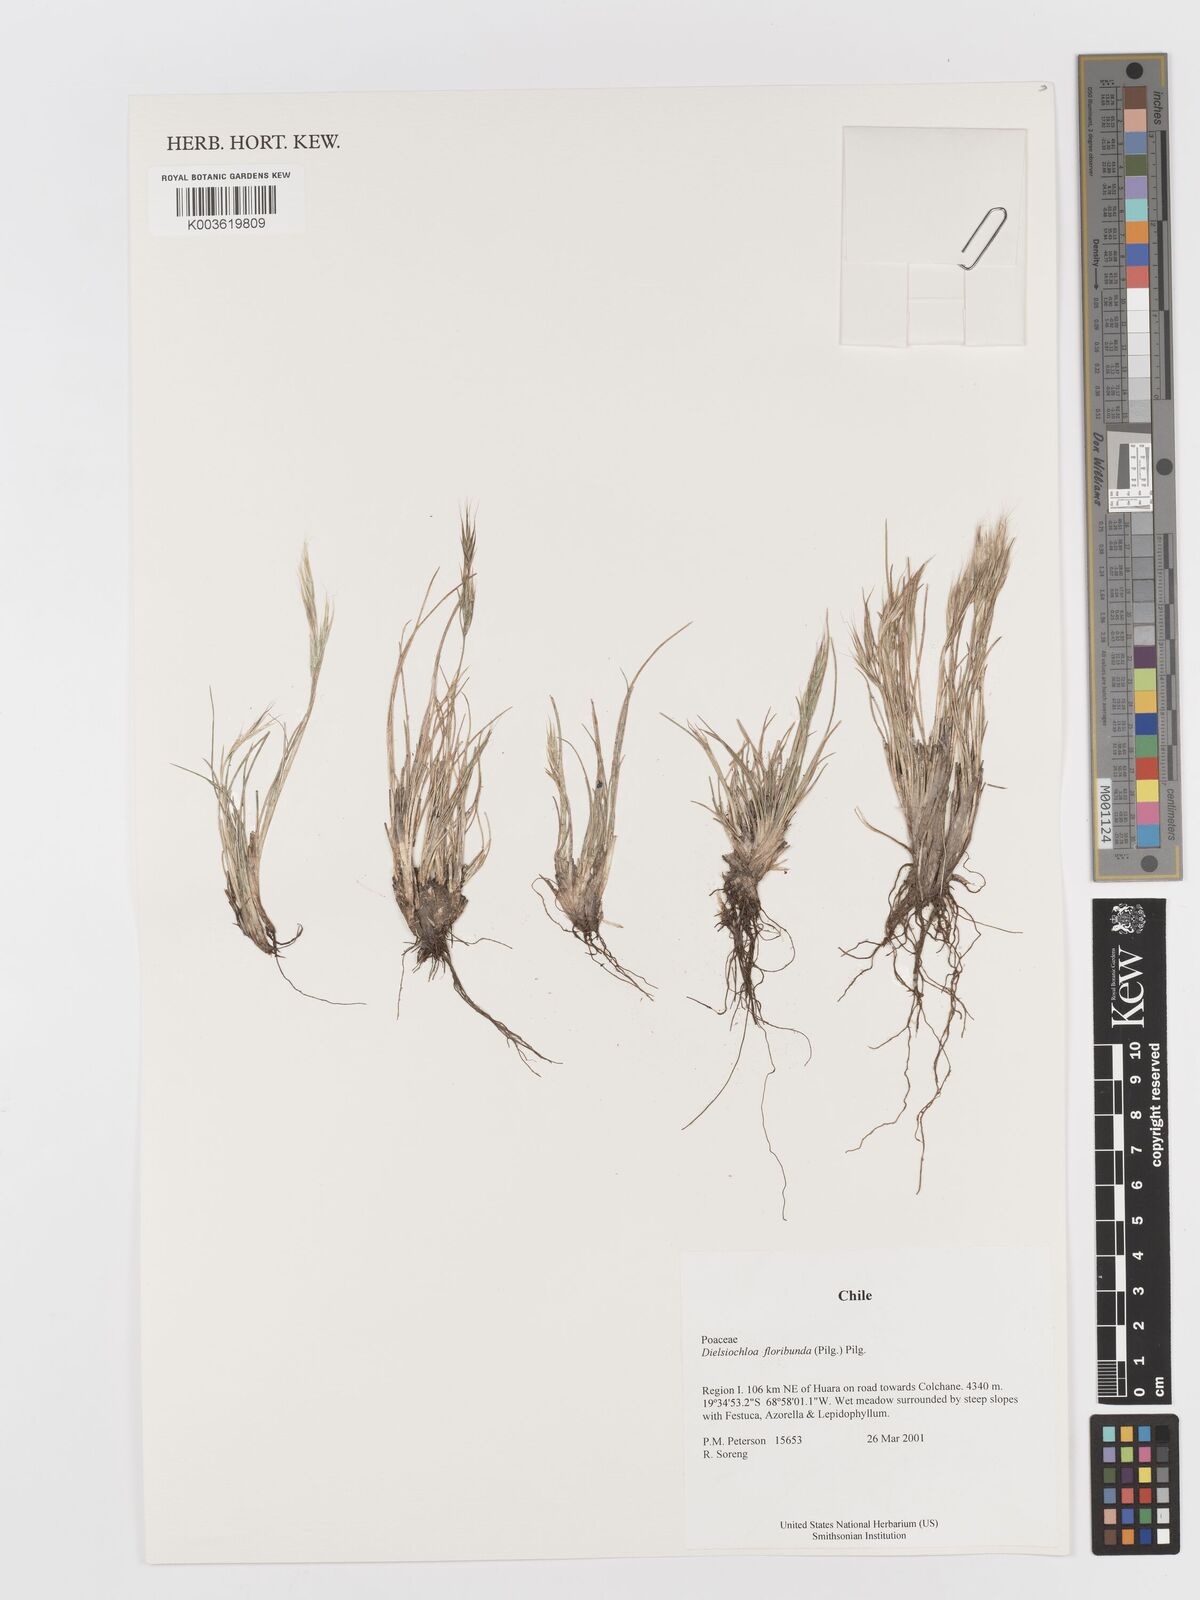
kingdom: Plantae
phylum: Tracheophyta
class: Liliopsida
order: Poales
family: Poaceae
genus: Festuca
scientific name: Festuca floribunda
